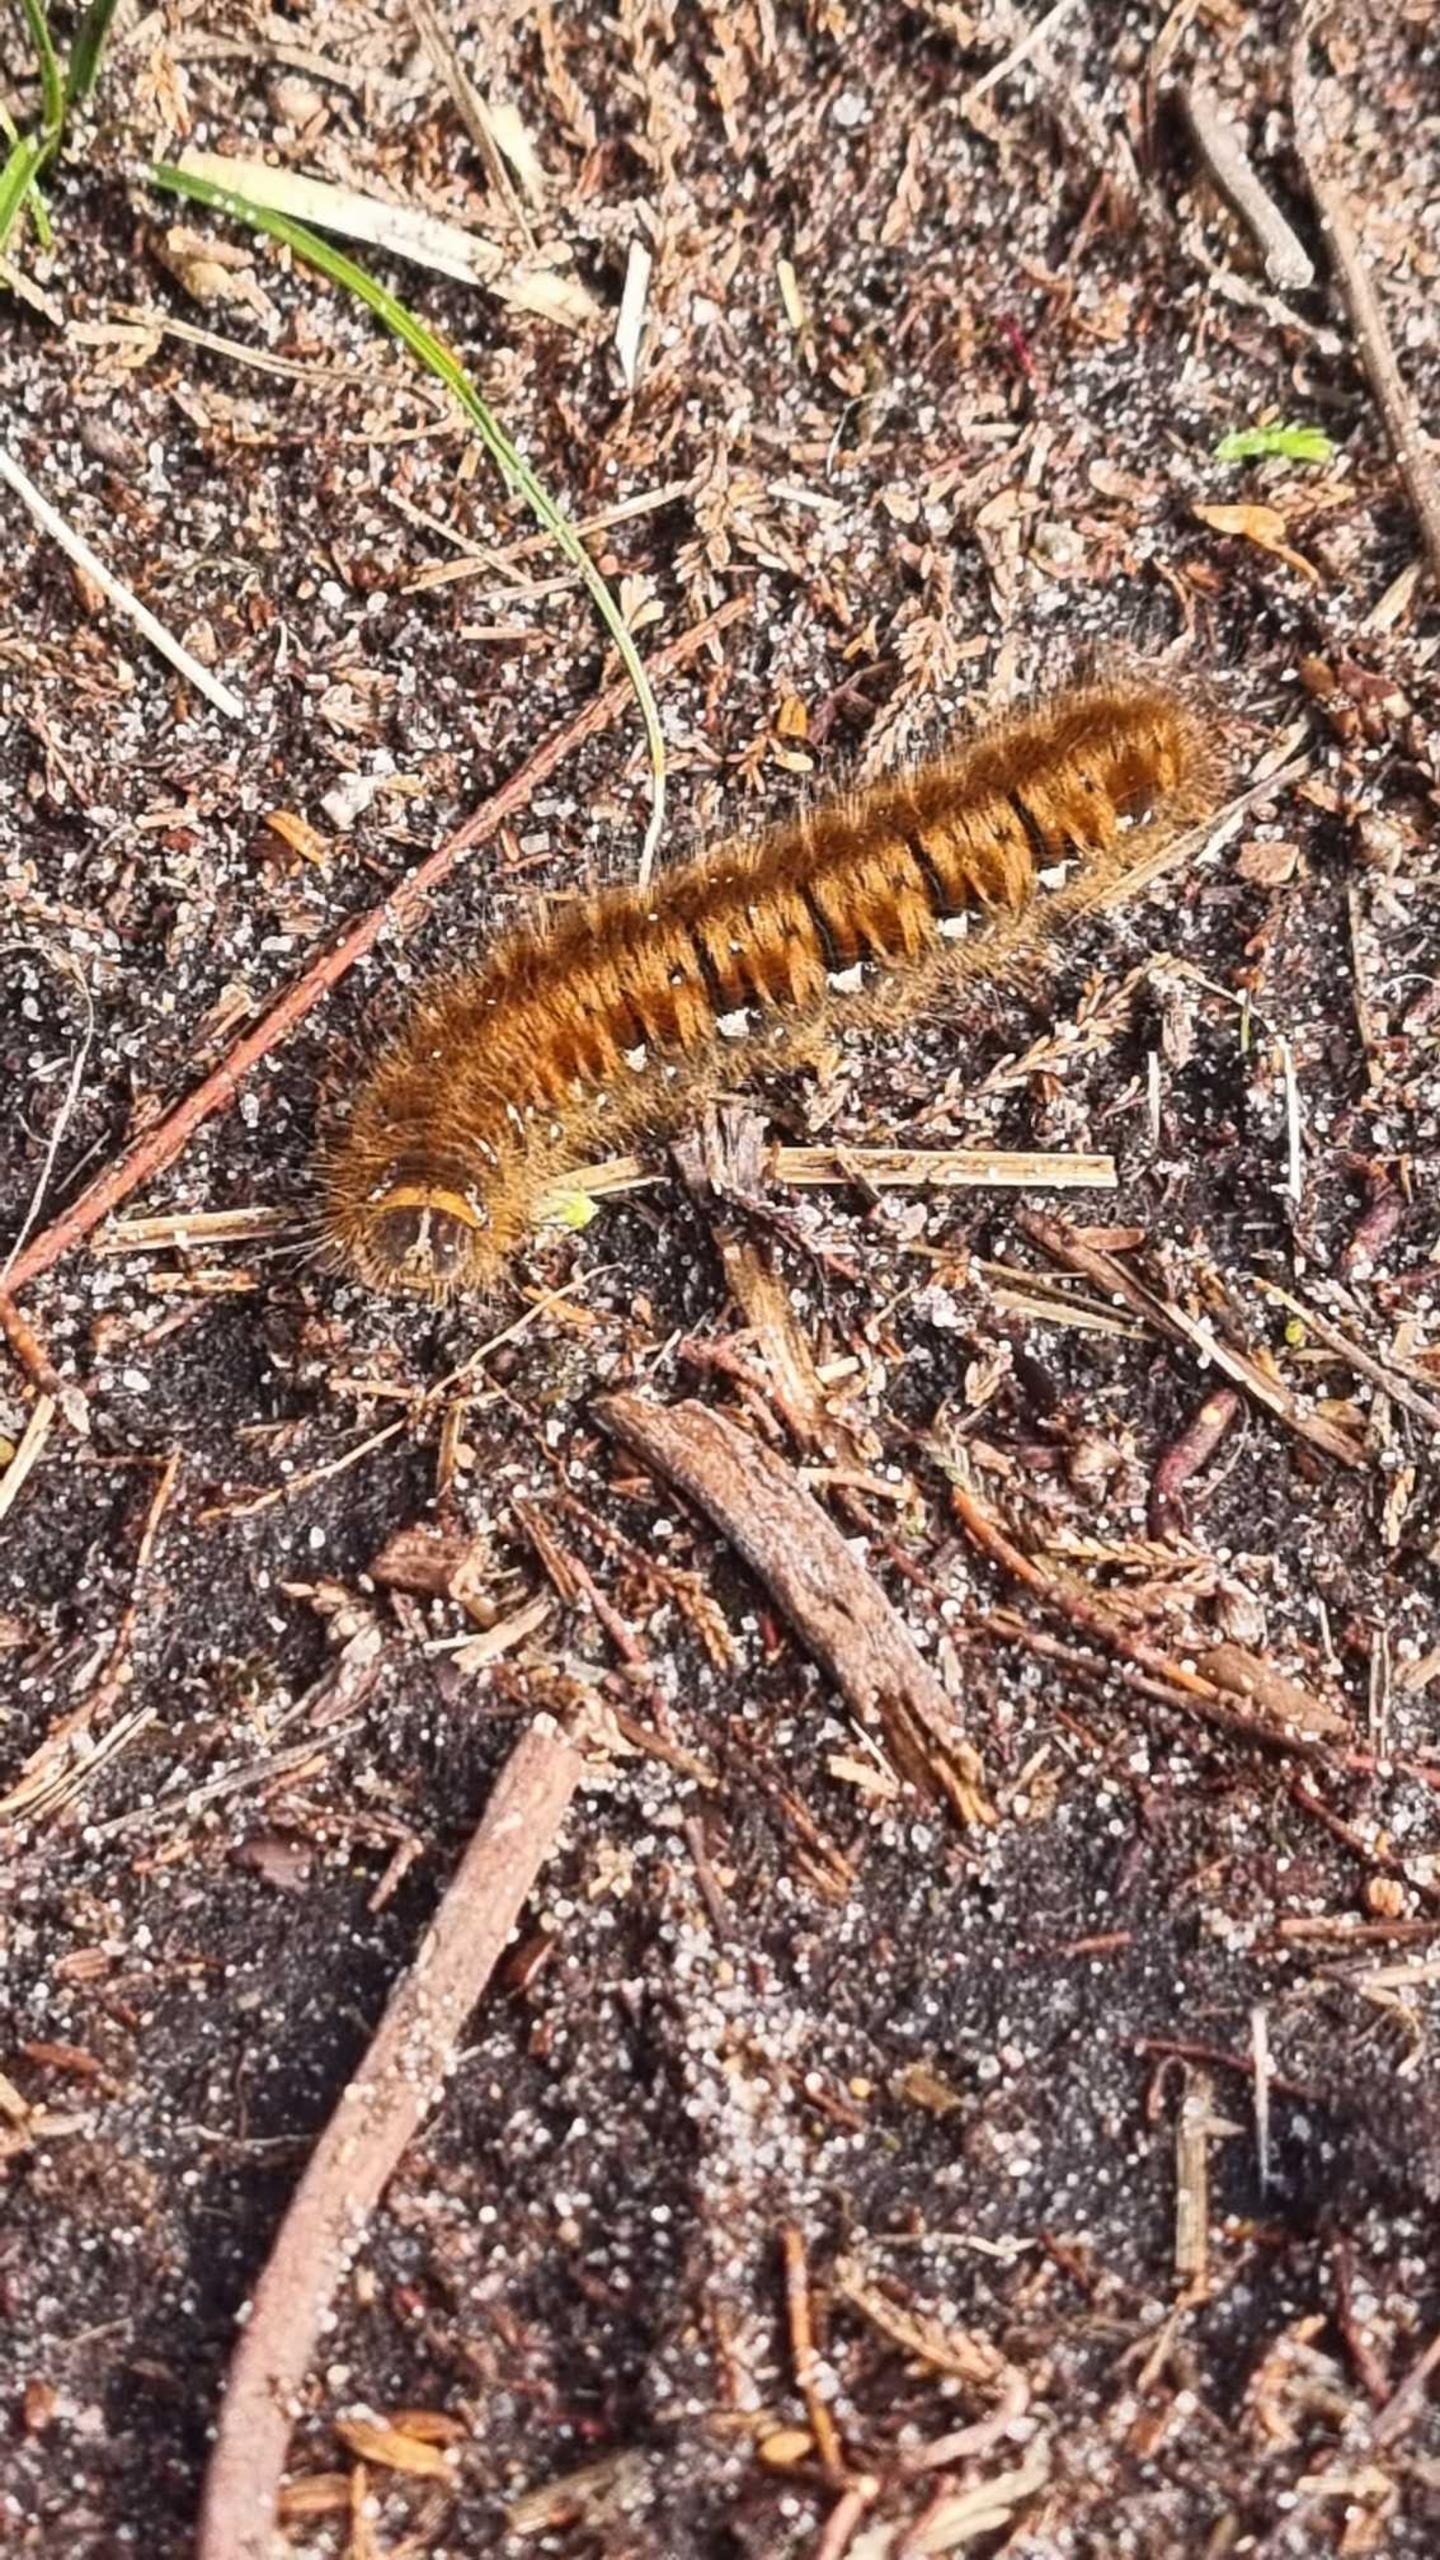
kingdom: Animalia
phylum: Arthropoda
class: Insecta
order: Lepidoptera
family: Lasiocampidae
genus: Lasiocampa
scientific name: Lasiocampa quercus
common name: Egespinder
